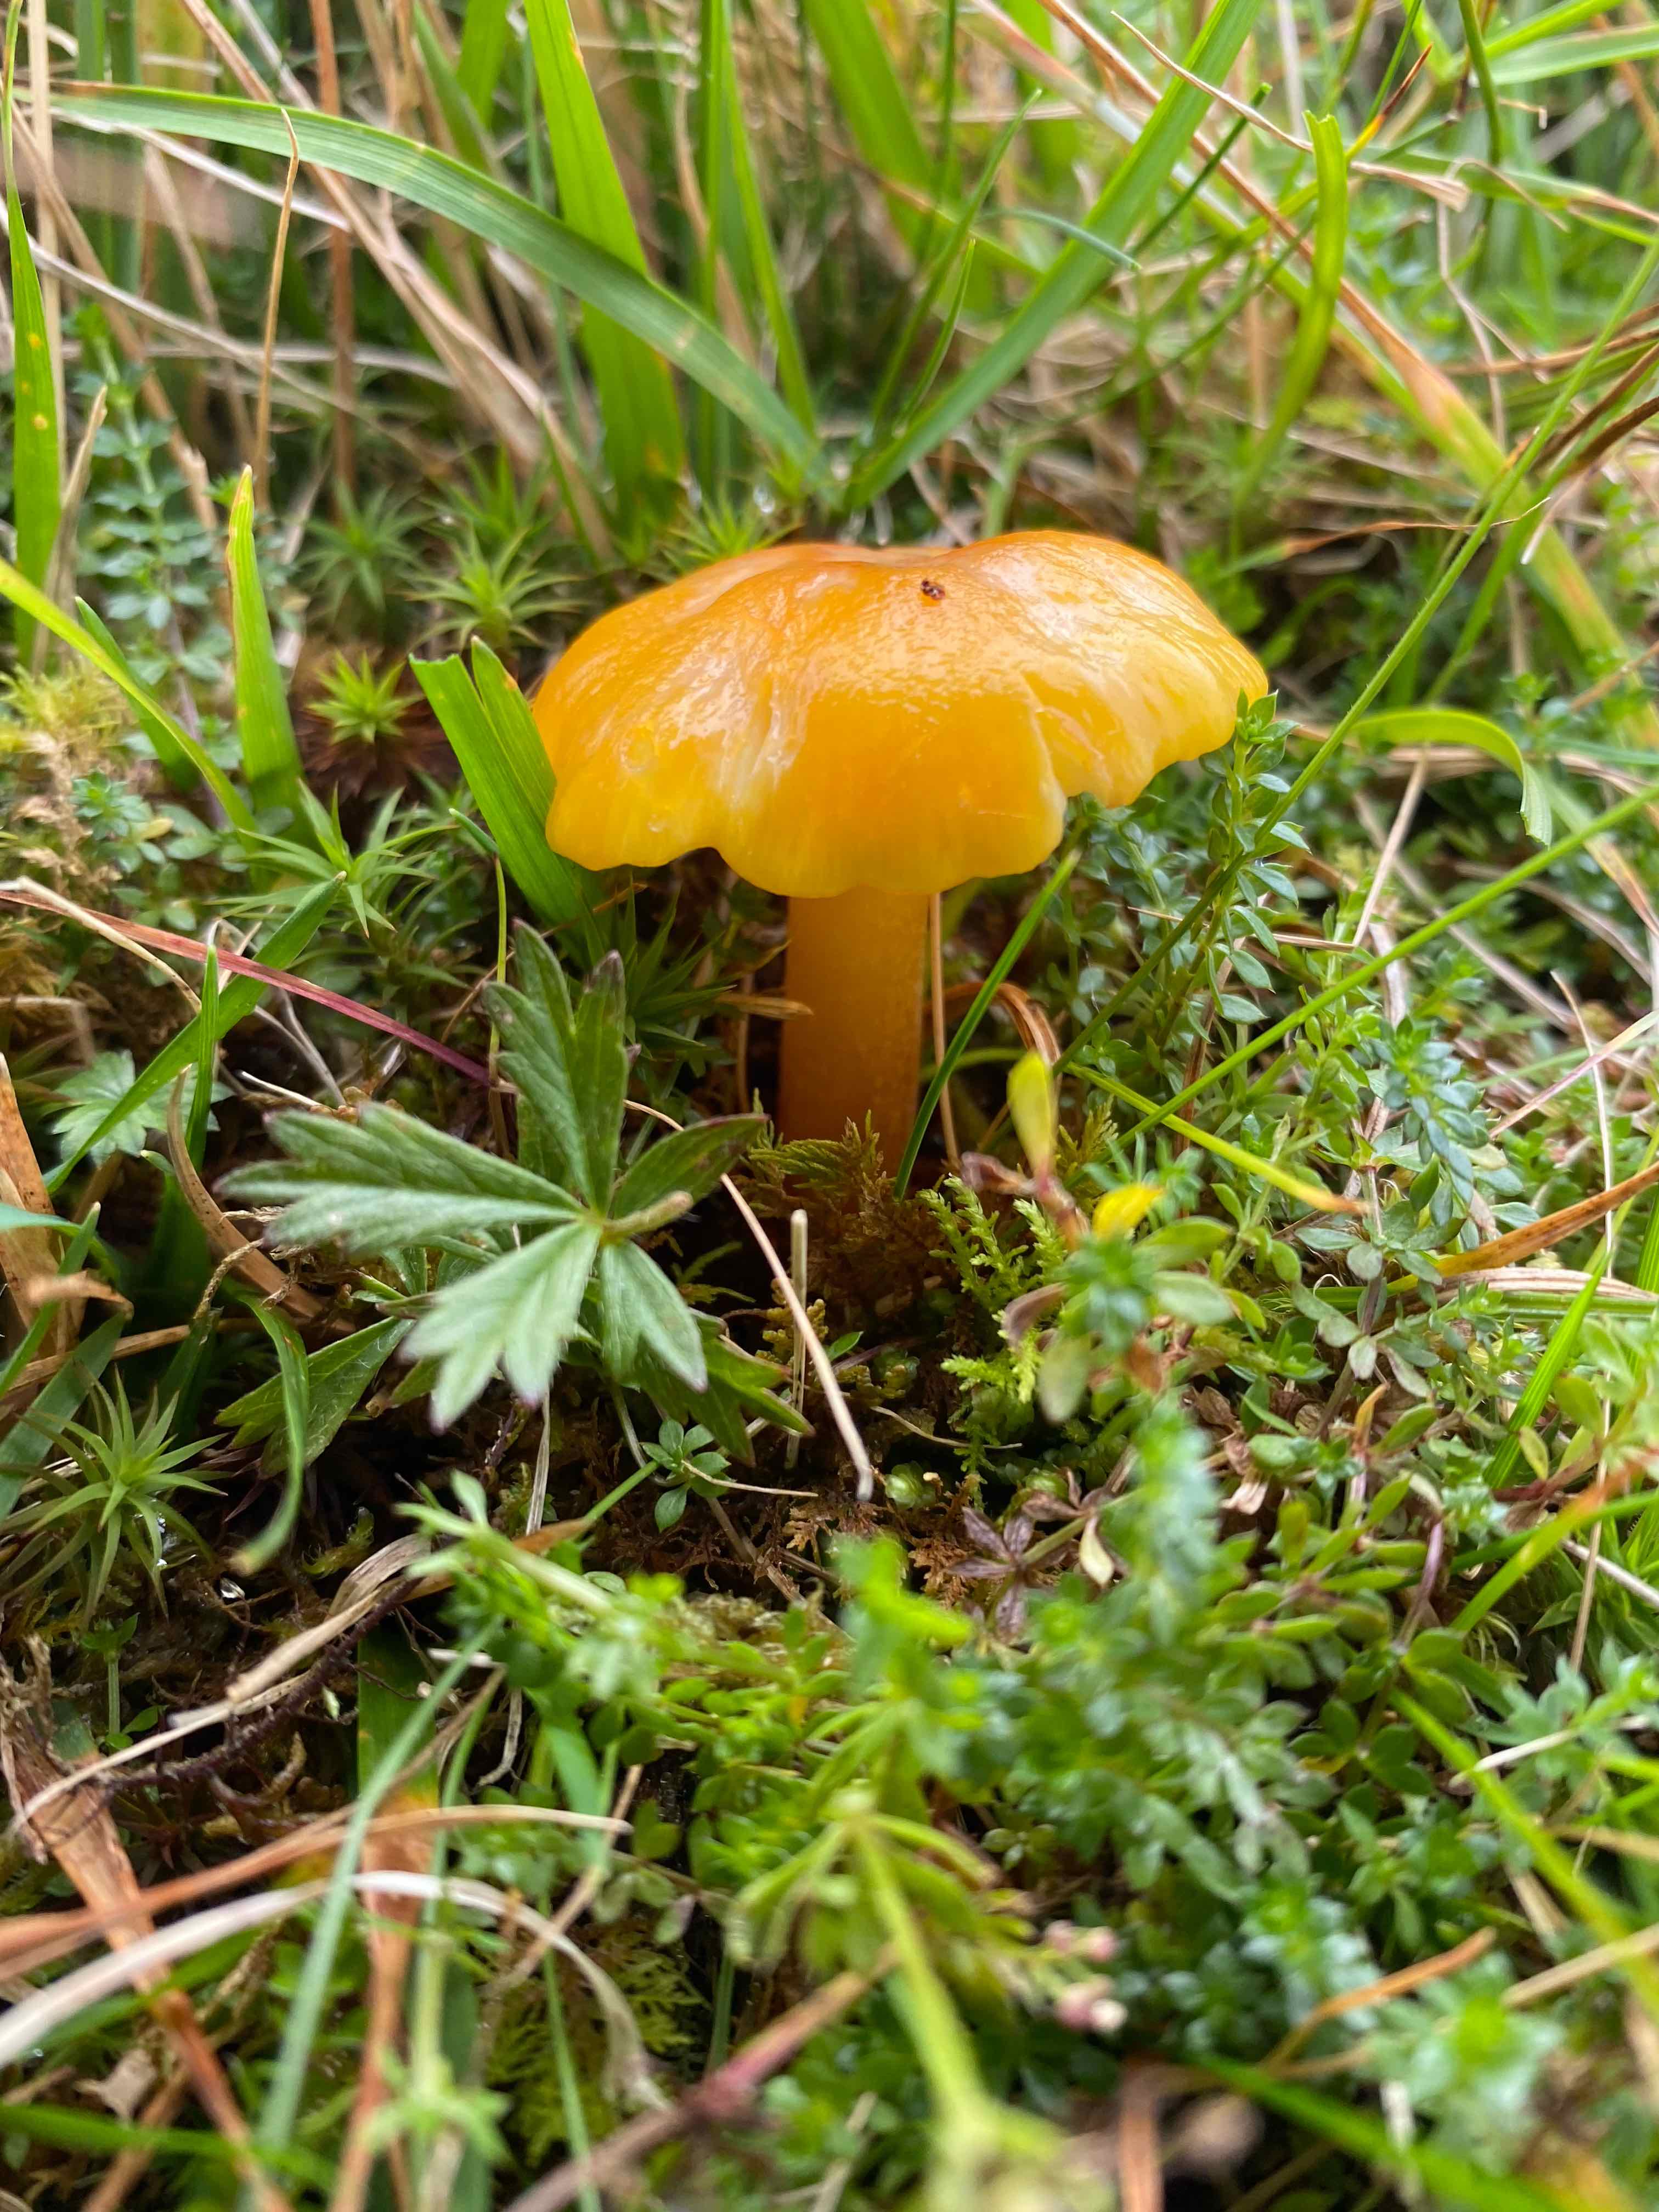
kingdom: Fungi
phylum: Basidiomycota
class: Agaricomycetes
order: Agaricales
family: Hygrophoraceae
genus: Hygrocybe
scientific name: Hygrocybe
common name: vokshat
